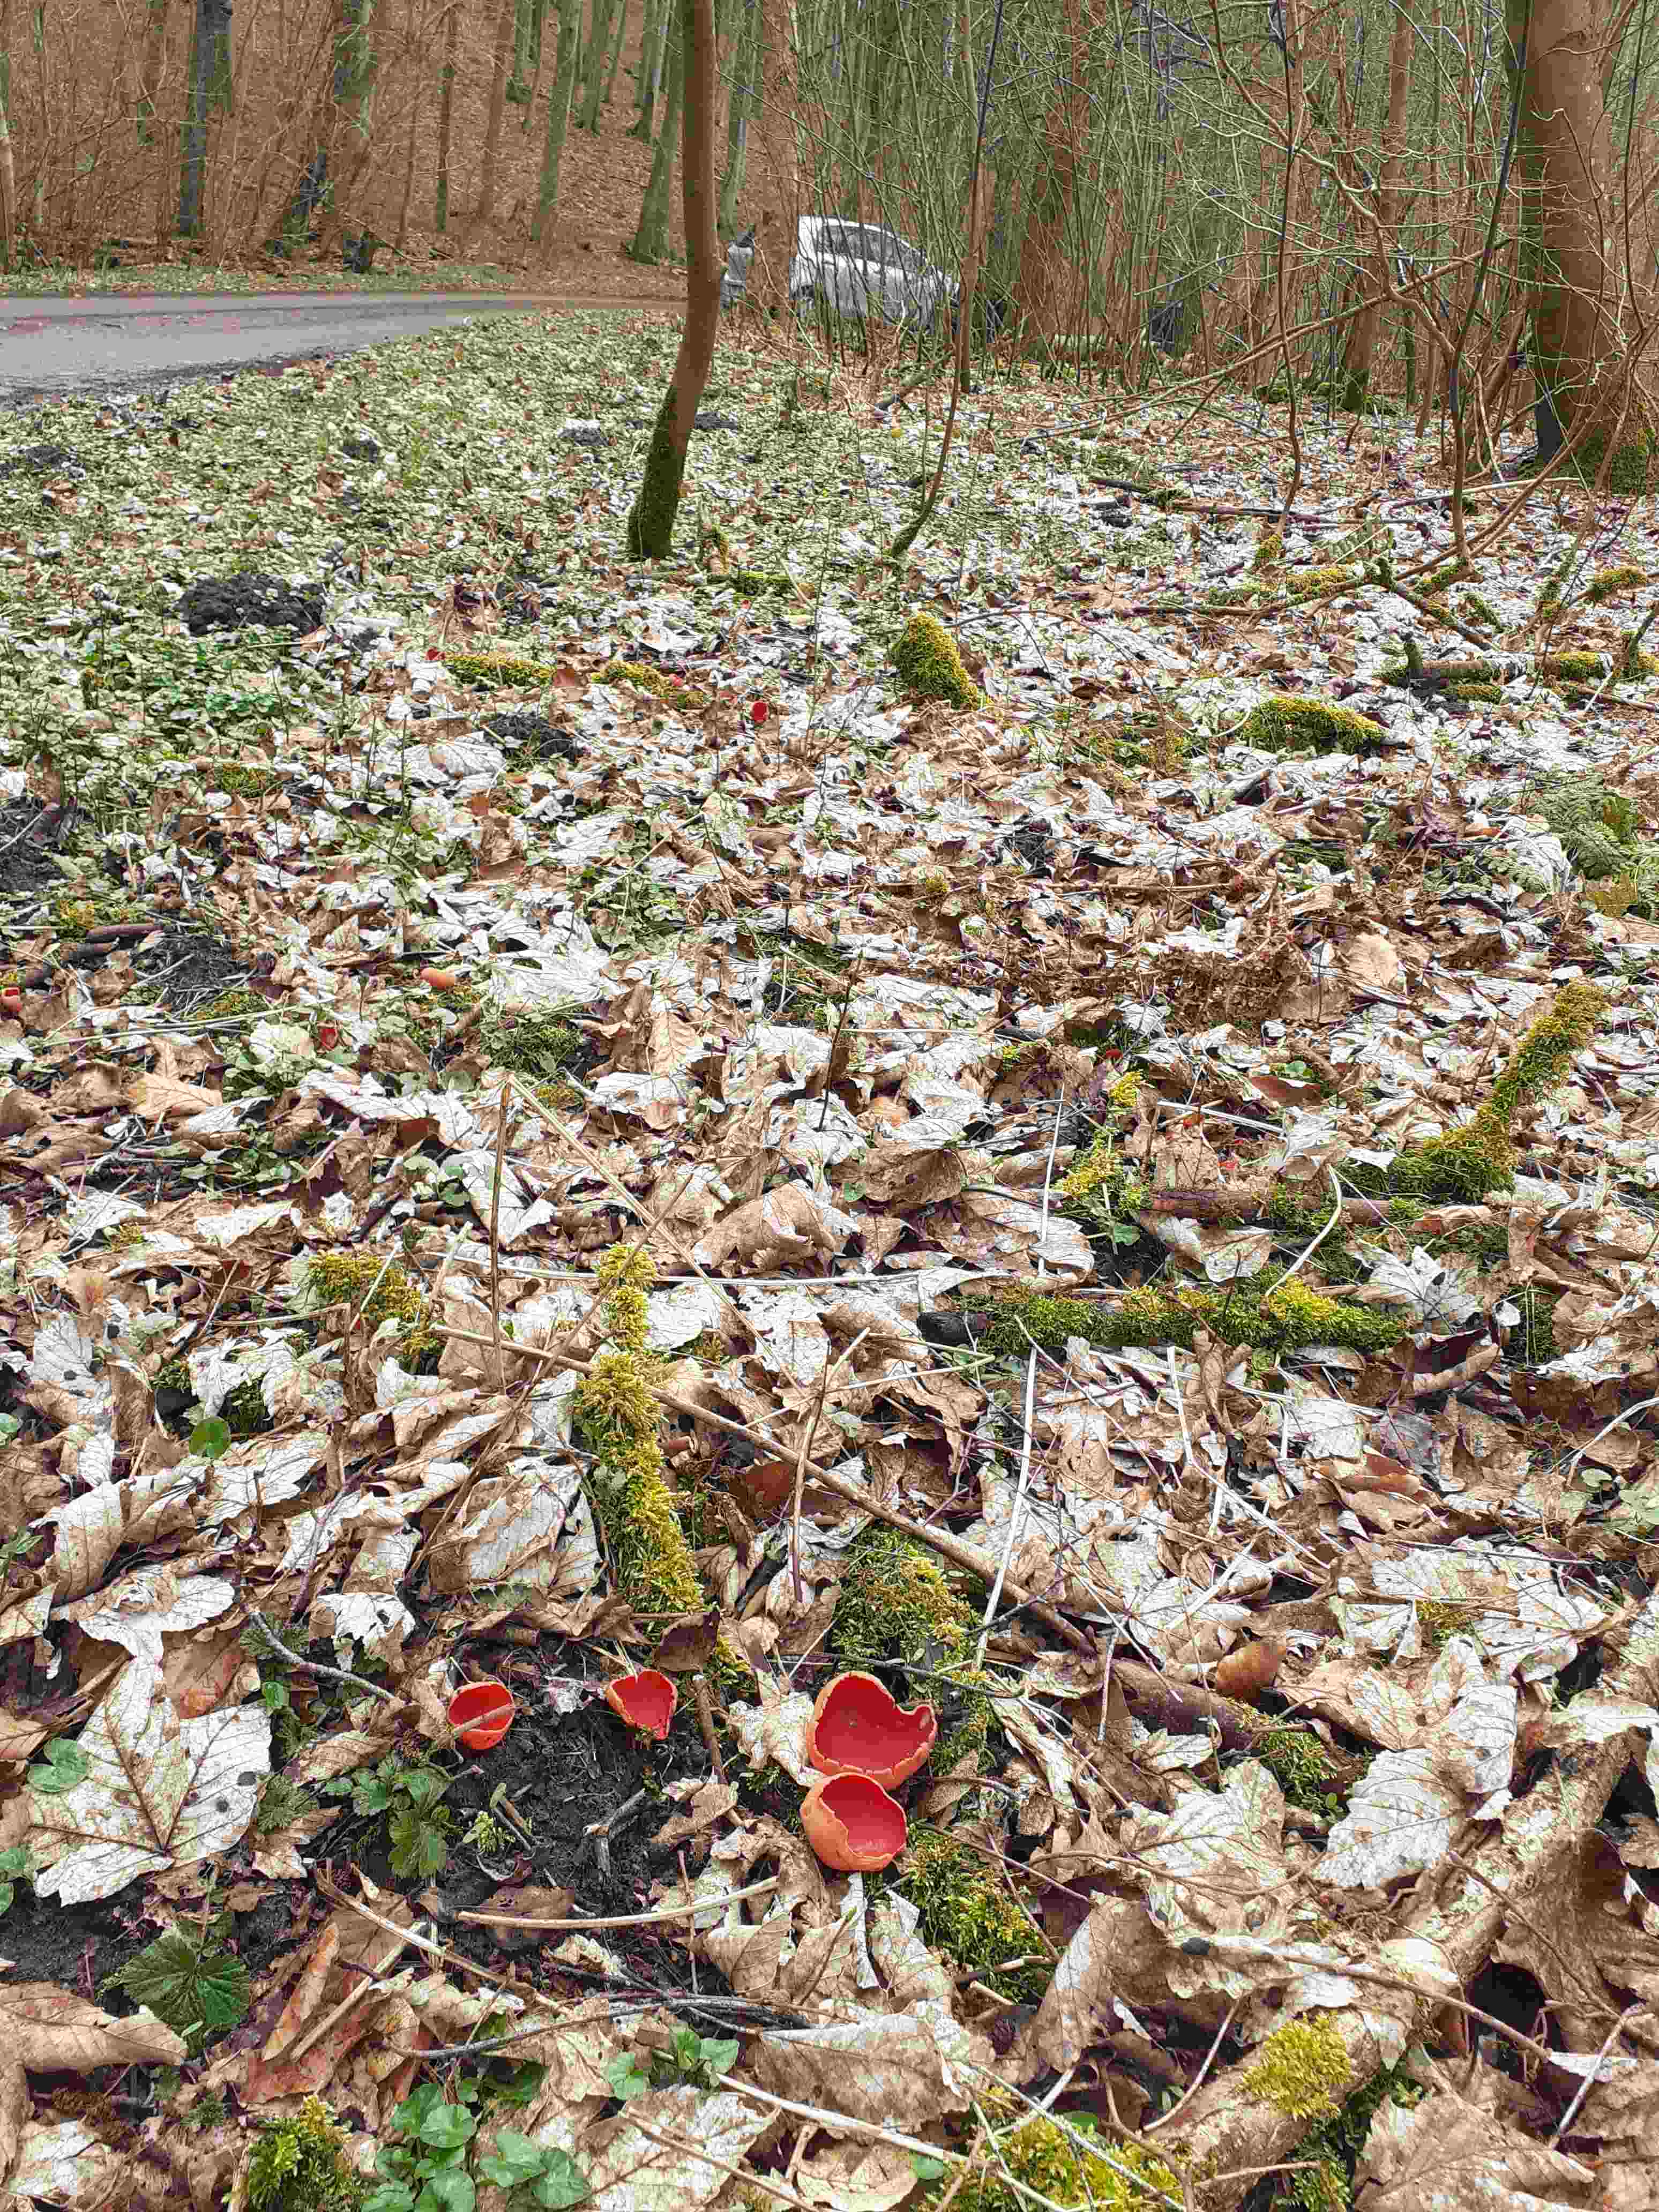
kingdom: Fungi
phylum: Ascomycota
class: Pezizomycetes
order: Pezizales
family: Sarcoscyphaceae
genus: Sarcoscypha
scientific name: Sarcoscypha austriaca
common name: krølhåret pragtbæger
